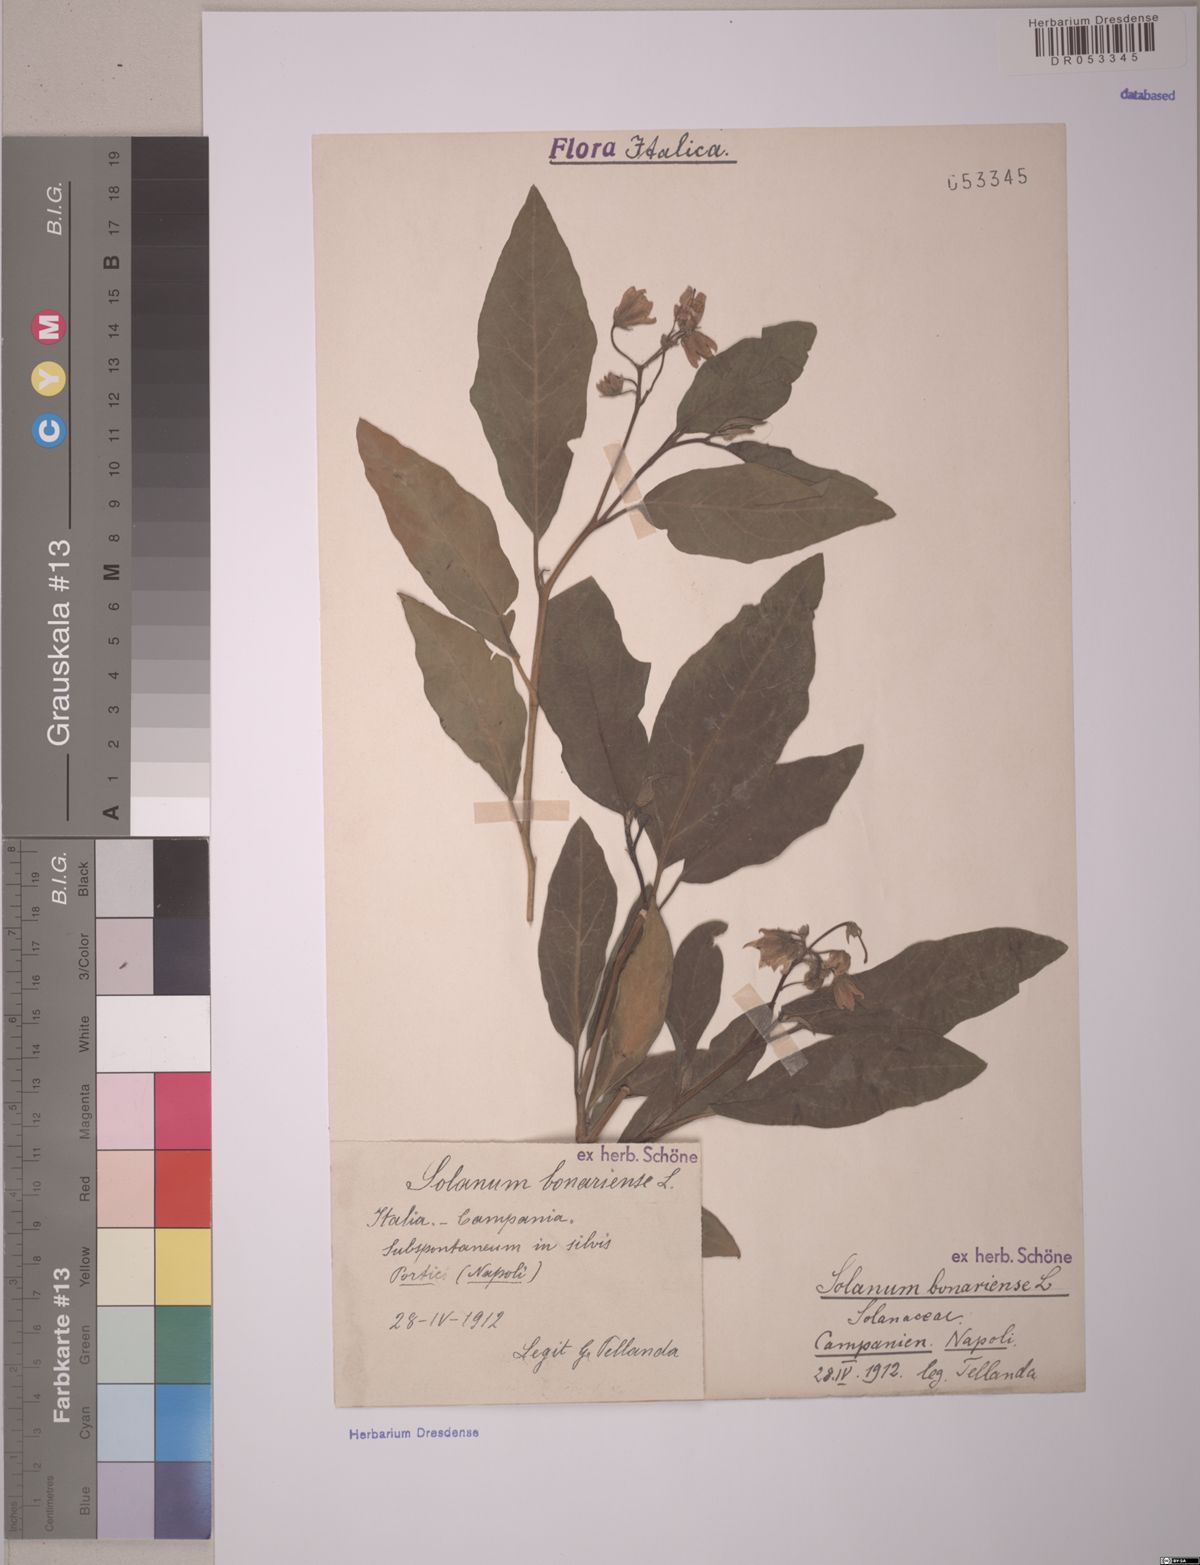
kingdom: Plantae
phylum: Tracheophyta
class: Magnoliopsida
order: Solanales
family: Solanaceae
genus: Solanum
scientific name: Solanum bonariense
